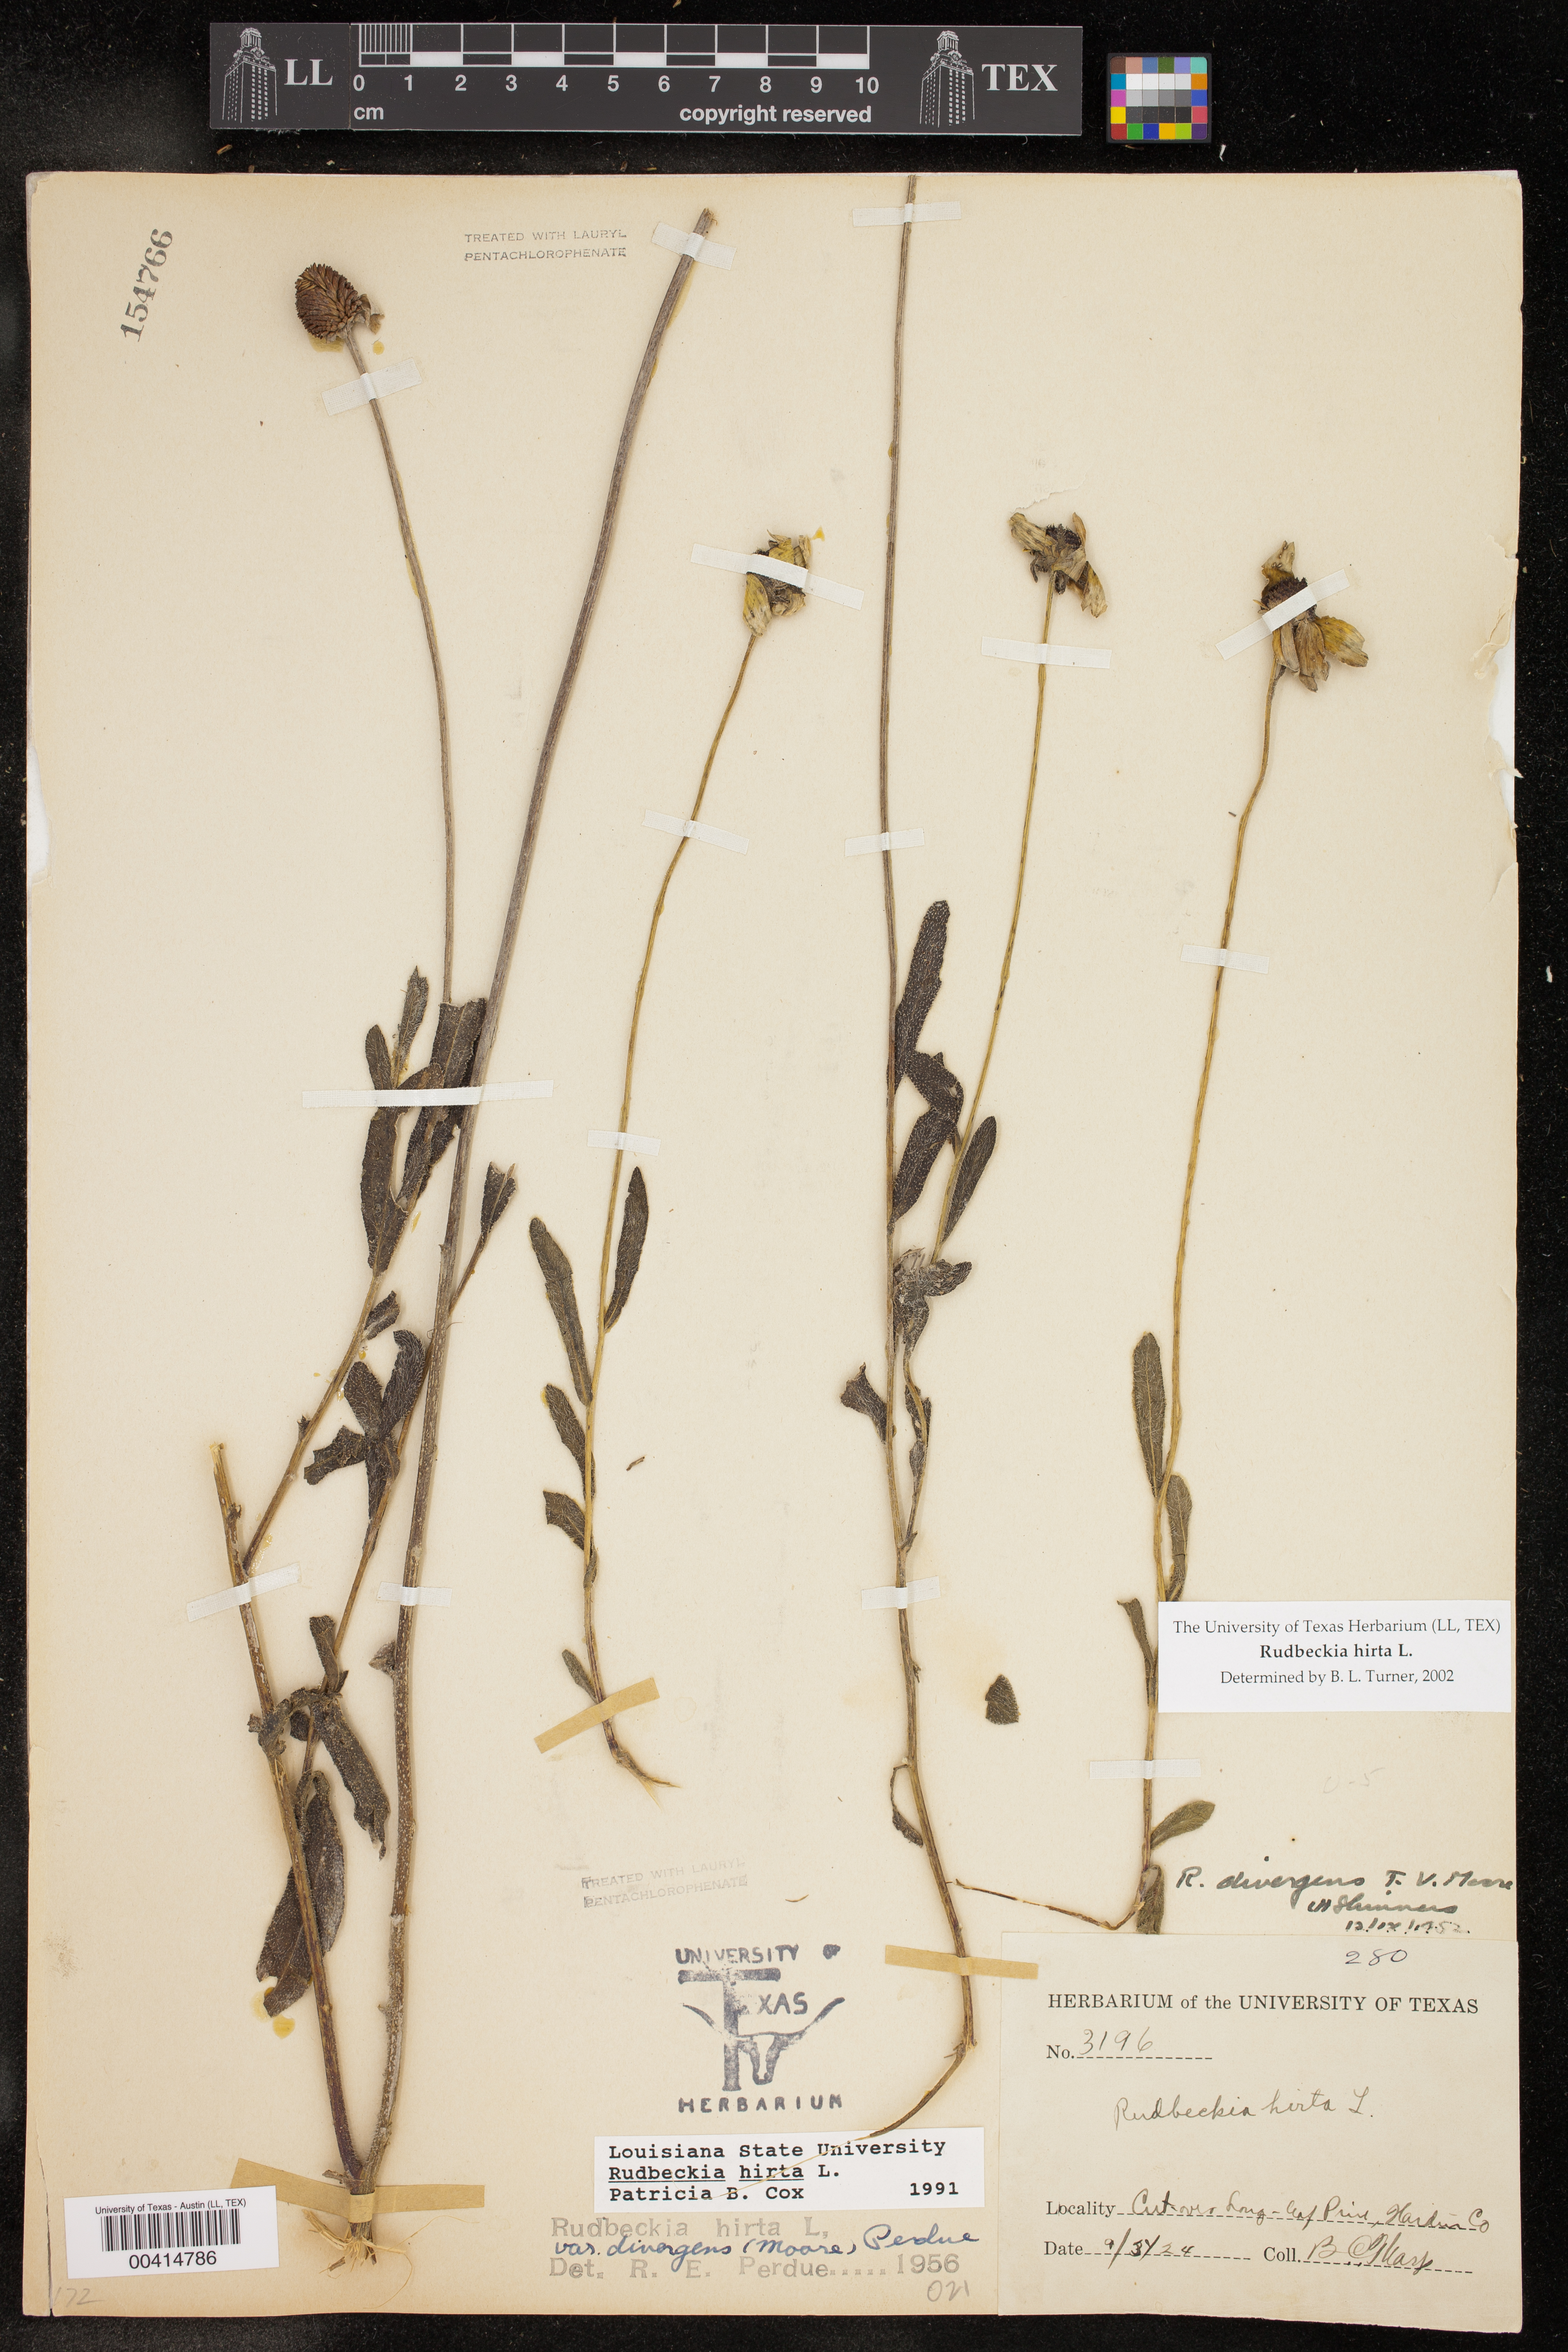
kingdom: Plantae
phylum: Tracheophyta
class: Magnoliopsida
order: Asterales
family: Asteraceae
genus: Rudbeckia
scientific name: Rudbeckia hirta
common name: Black-eyed-susan
